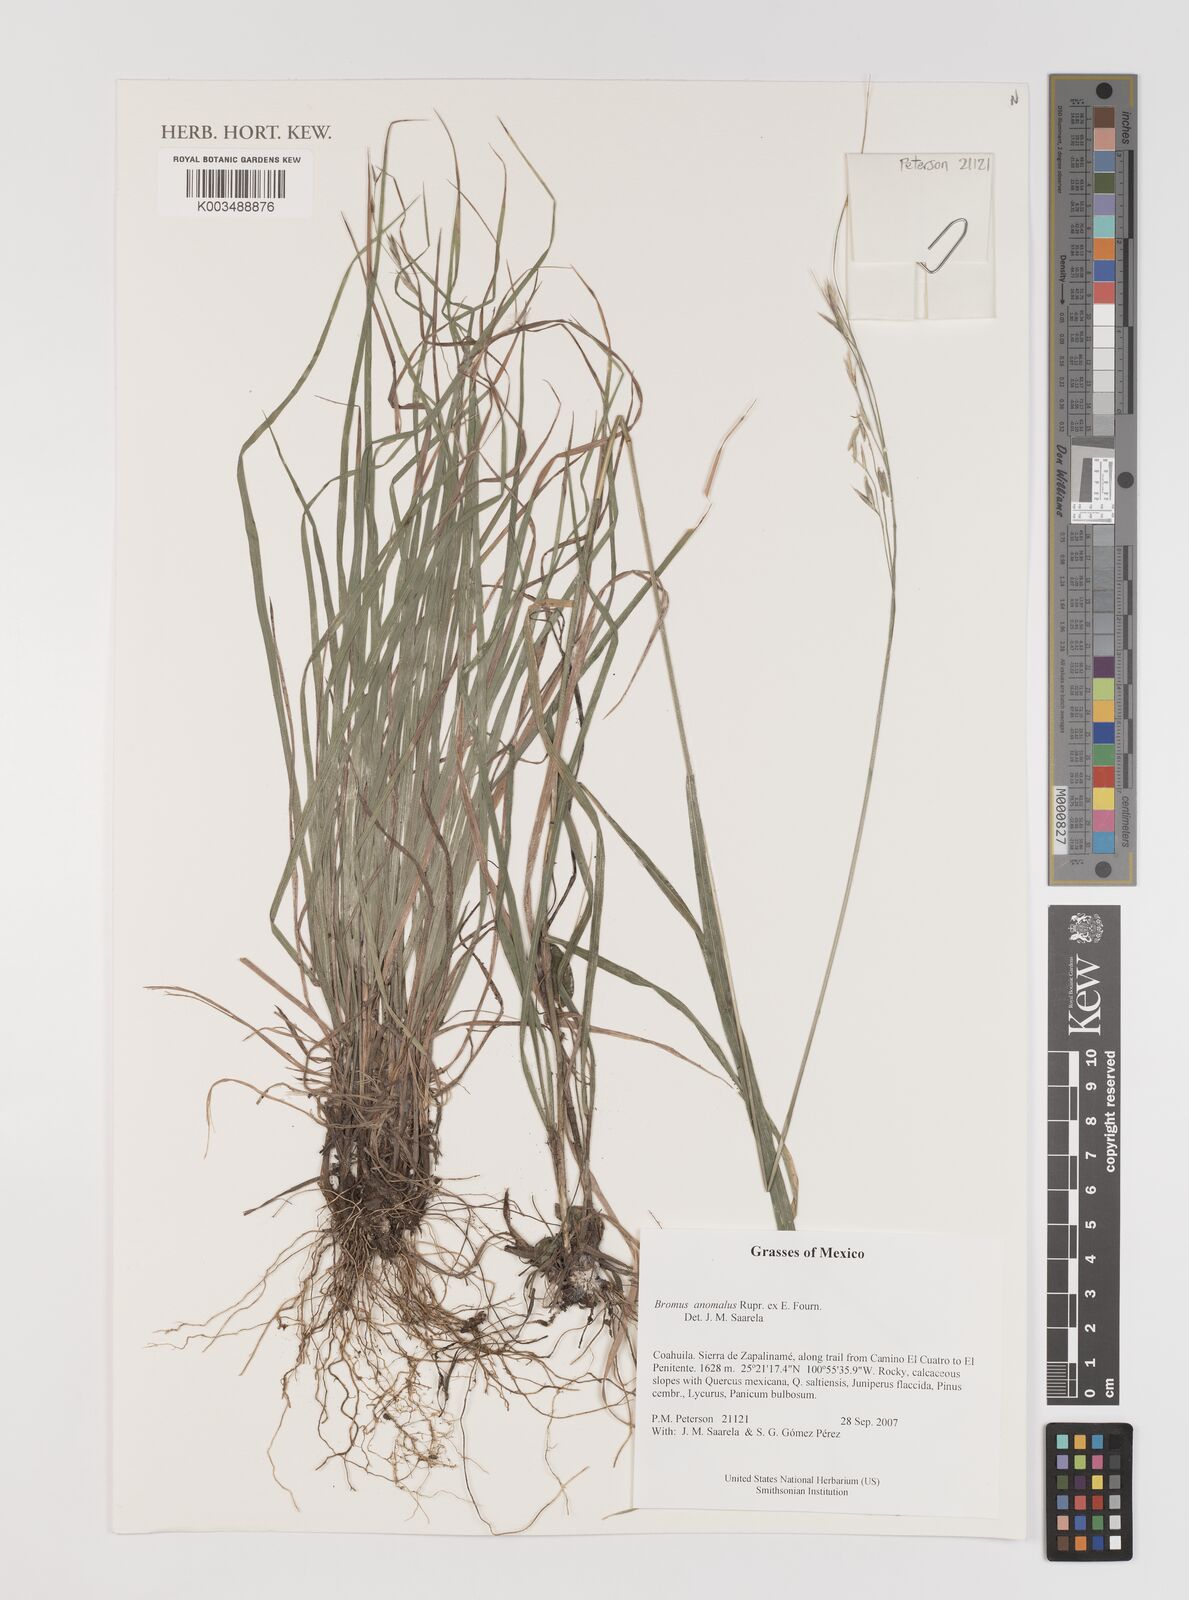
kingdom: Plantae
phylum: Tracheophyta
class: Liliopsida
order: Poales
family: Poaceae
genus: Bromus
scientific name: Bromus anomalus
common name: Nodding brome
